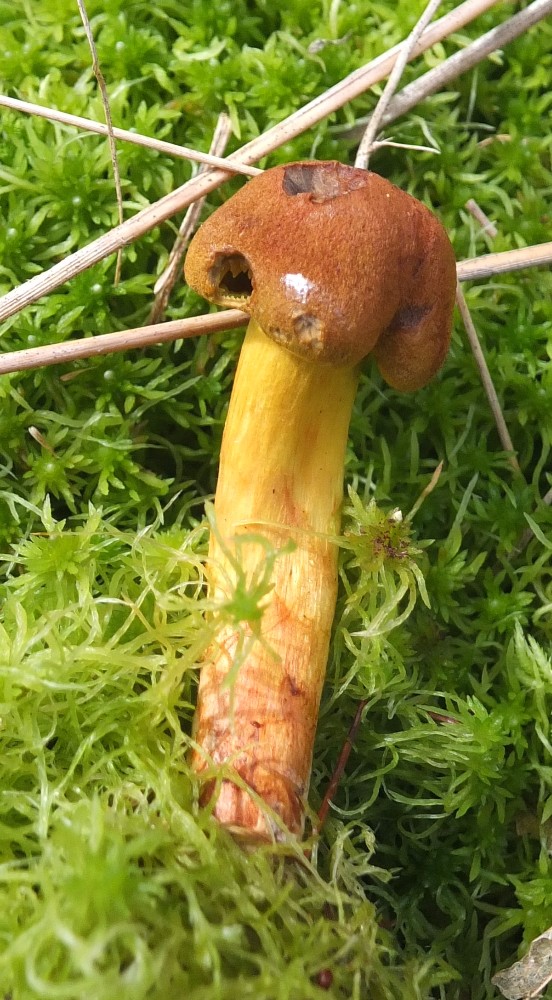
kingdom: Fungi
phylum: Basidiomycota
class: Agaricomycetes
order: Agaricales
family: Cortinariaceae
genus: Cortinarius
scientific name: Cortinarius bataillei
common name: orangefodet slørhat
